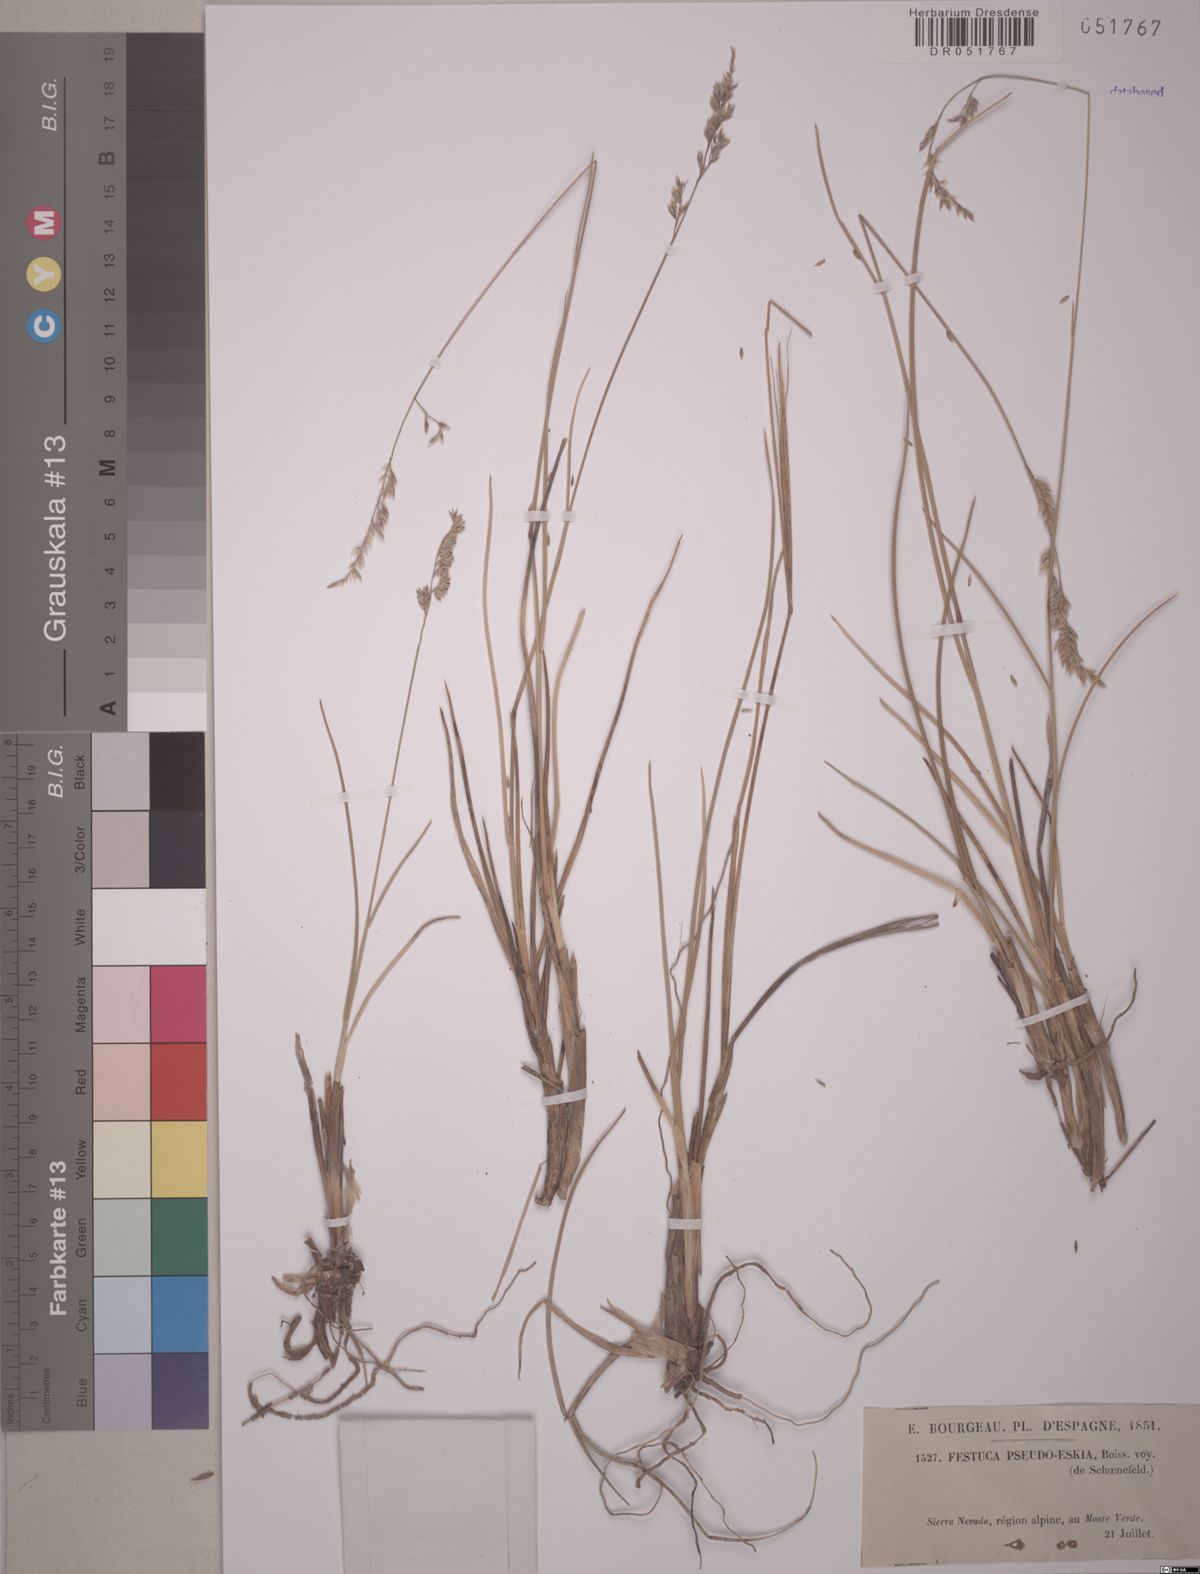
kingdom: Plantae
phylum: Tracheophyta
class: Liliopsida
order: Poales
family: Poaceae
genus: Festuca
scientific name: Festuca pseudeskia
